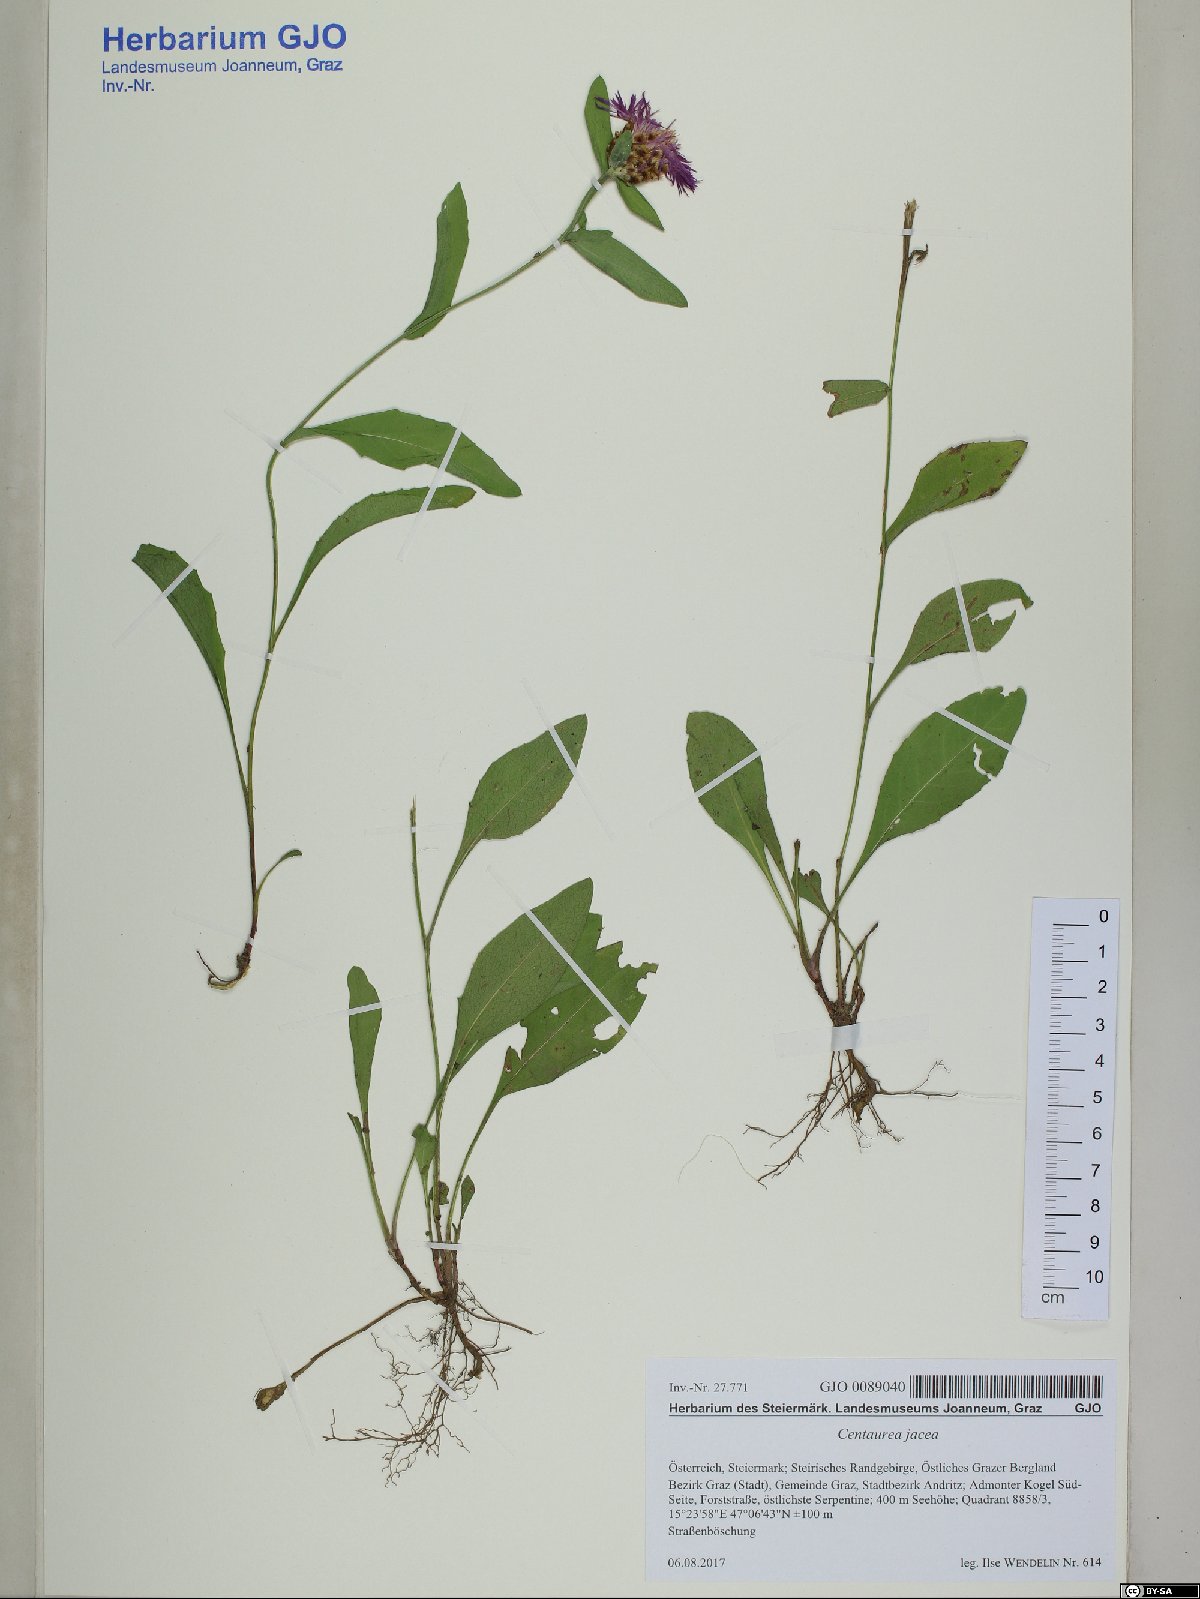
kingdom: Plantae
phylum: Tracheophyta
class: Magnoliopsida
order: Asterales
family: Asteraceae
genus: Centaurea
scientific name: Centaurea jacea
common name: Brown knapweed
